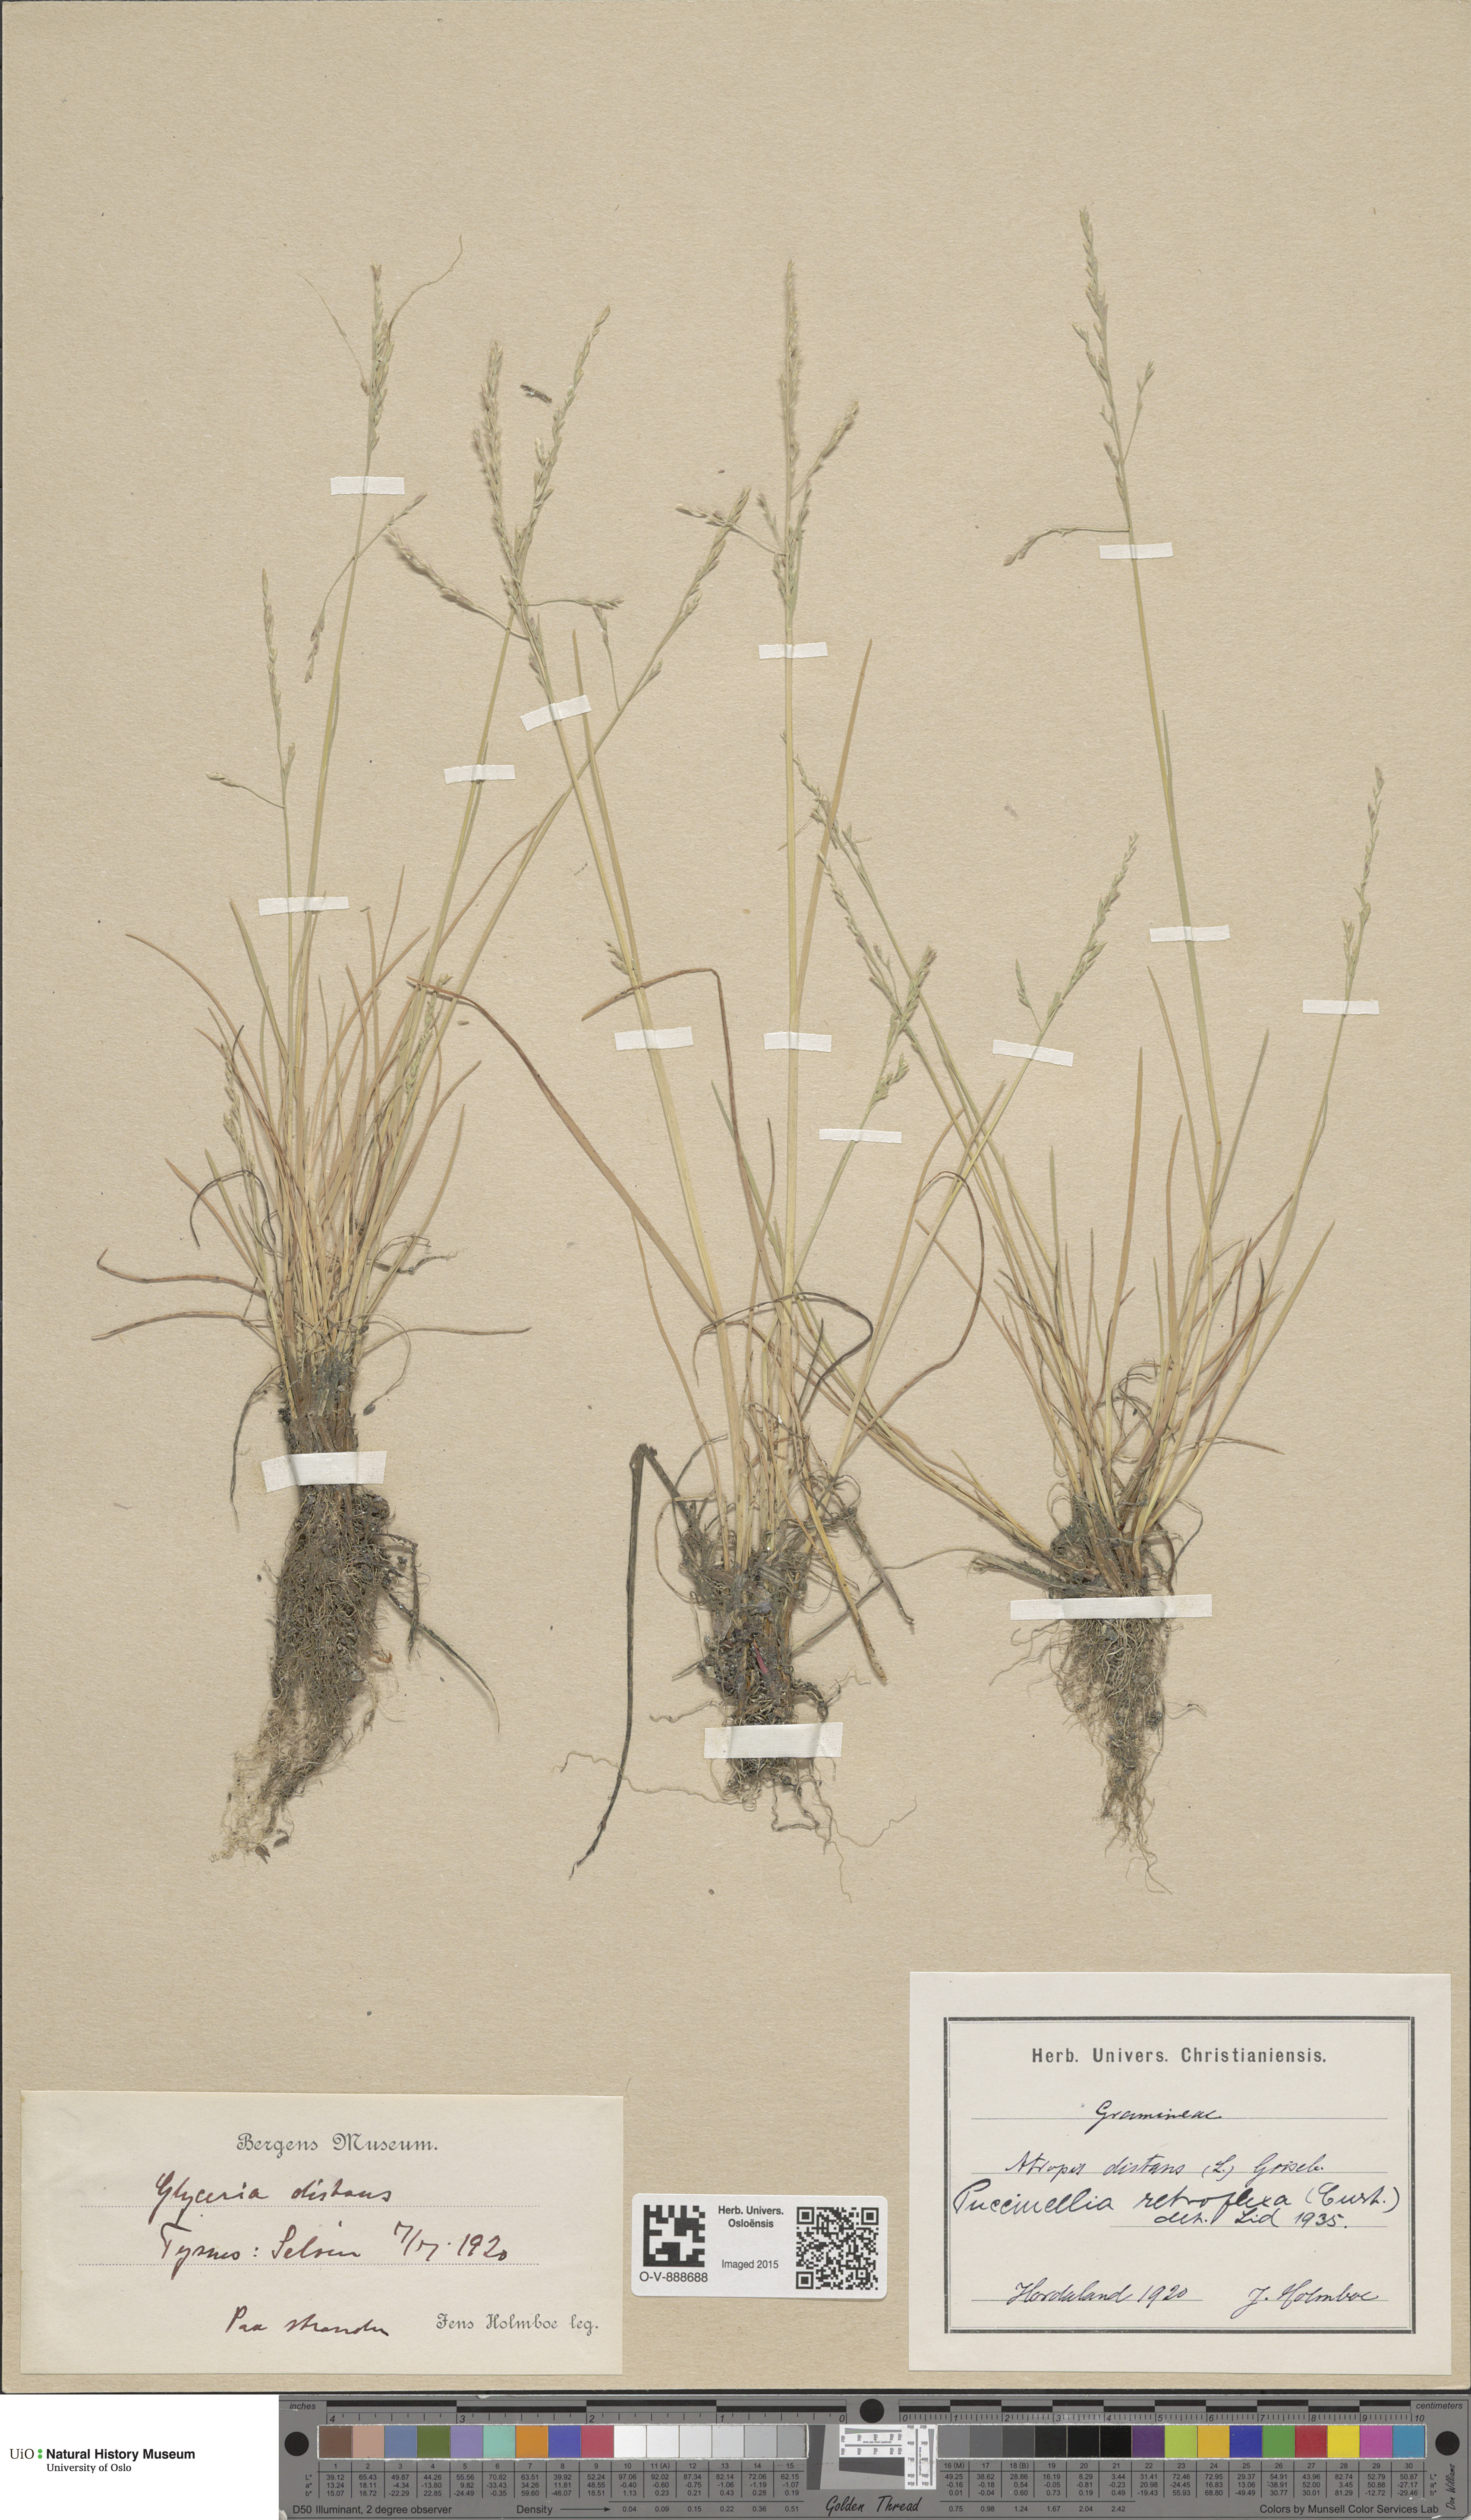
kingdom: Plantae
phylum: Tracheophyta
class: Liliopsida
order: Poales
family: Poaceae
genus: Puccinellia
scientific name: Puccinellia distans
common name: Weeping alkaligrass
